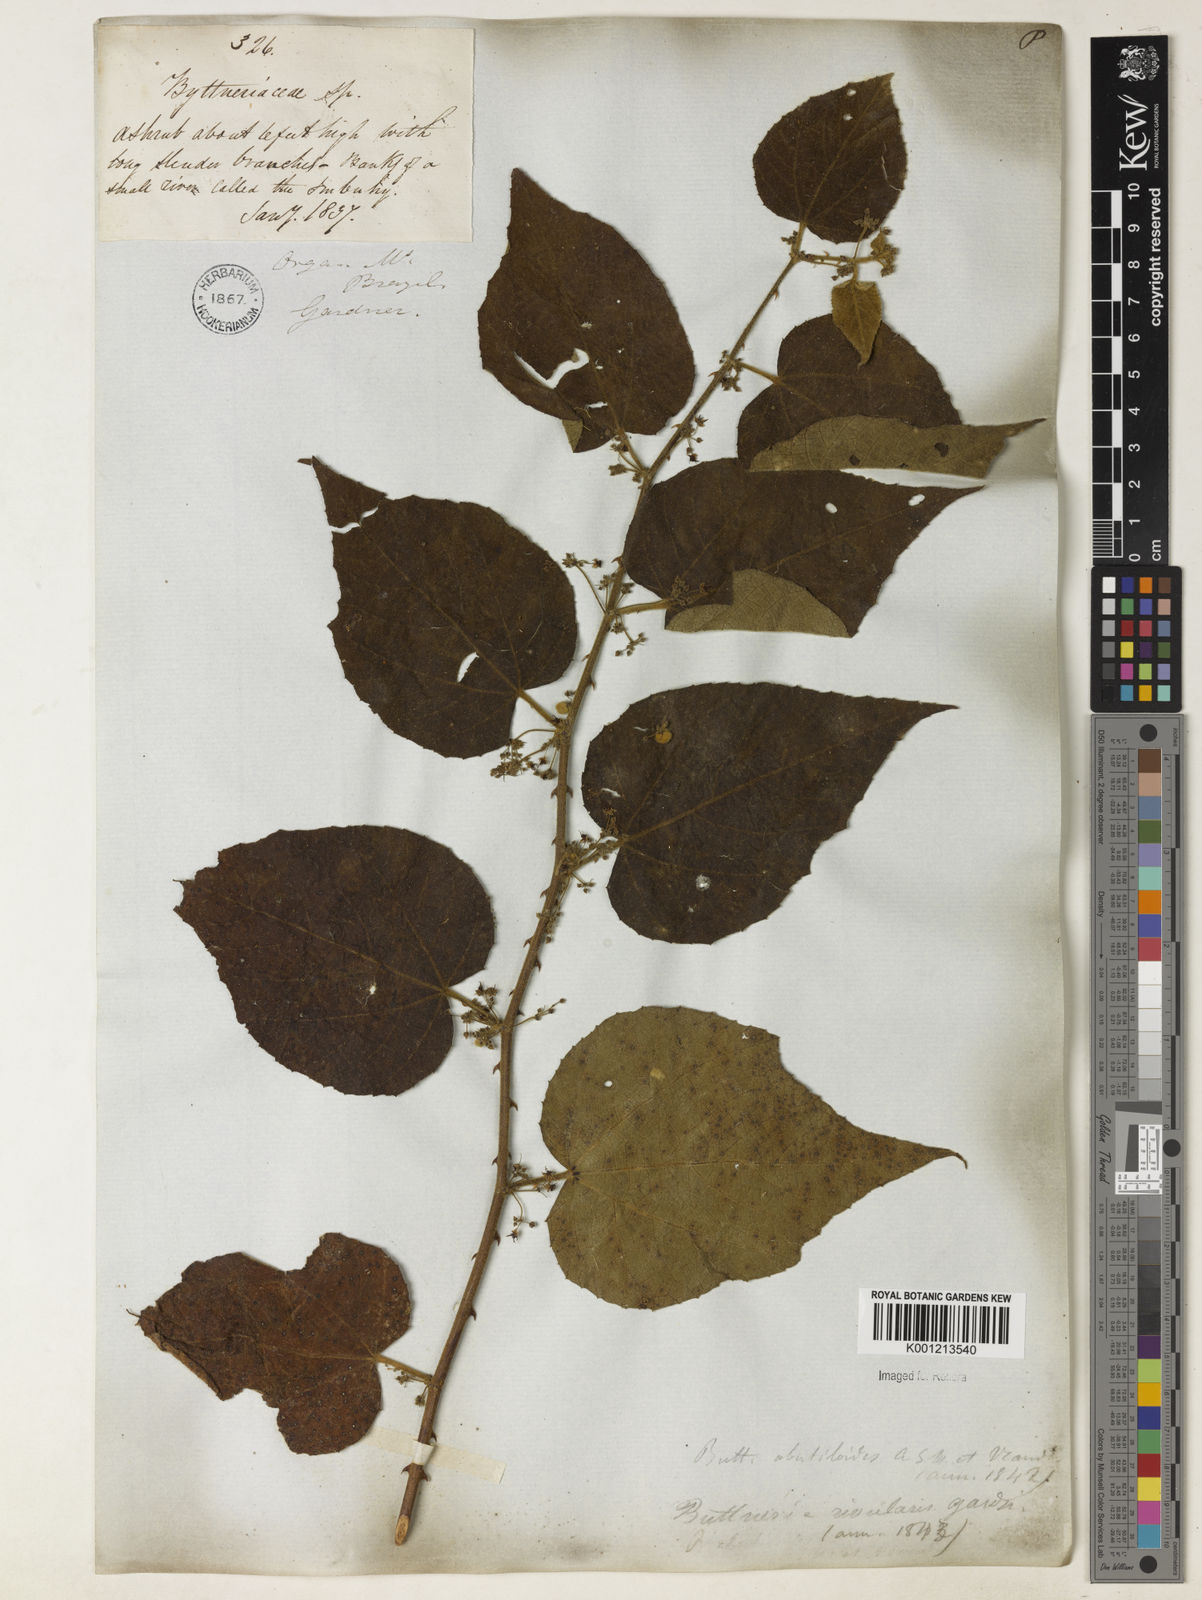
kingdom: Plantae
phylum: Tracheophyta
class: Magnoliopsida
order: Malvales
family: Malvaceae
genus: Byttneria
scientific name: Byttneria hirsuta
